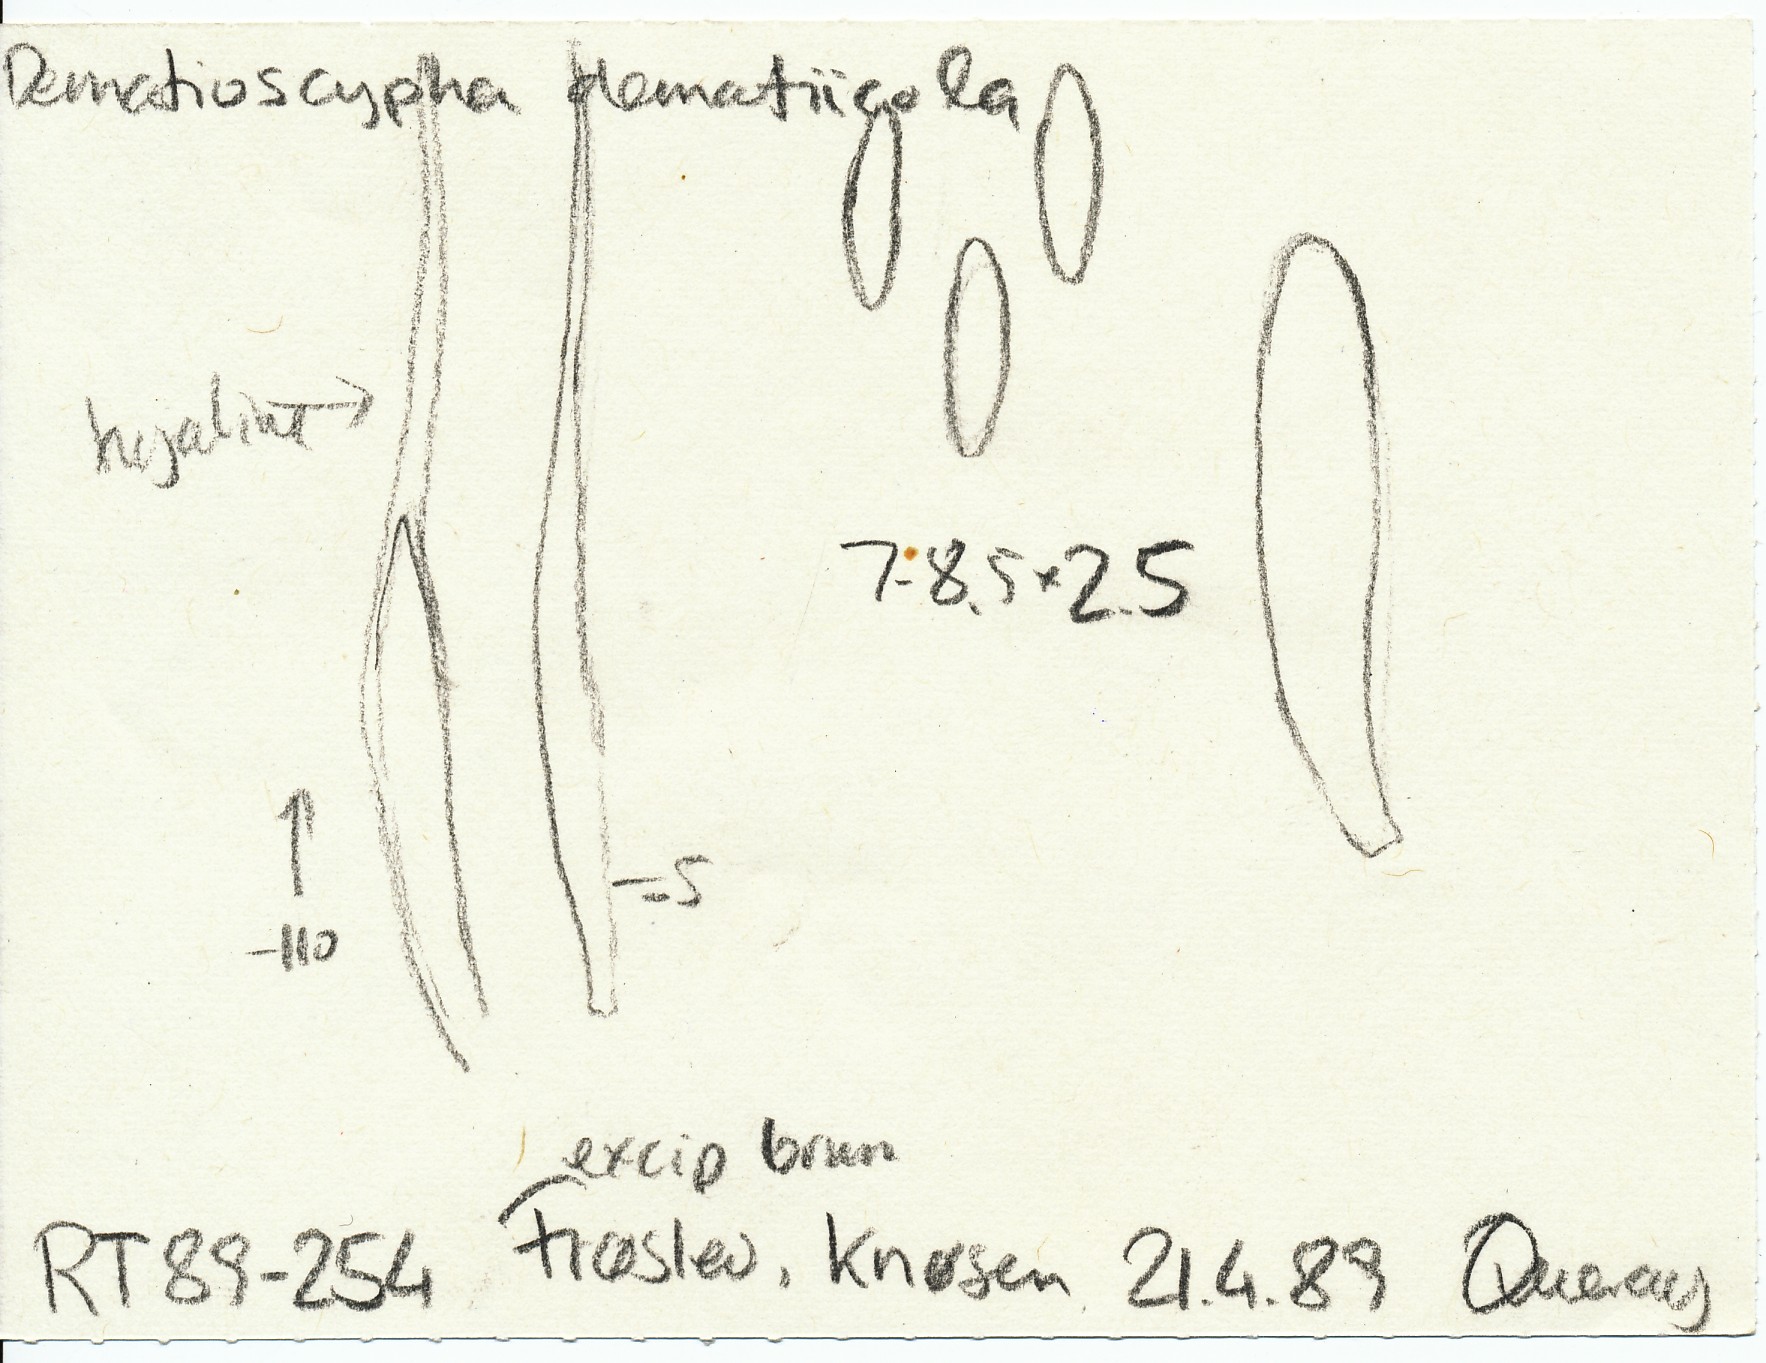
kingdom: Fungi
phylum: Ascomycota
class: Leotiomycetes
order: Helotiales
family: Hyaloscyphaceae
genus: Dematioscypha
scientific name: Dematioscypha dematiicola
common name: grålig skimmelskive
